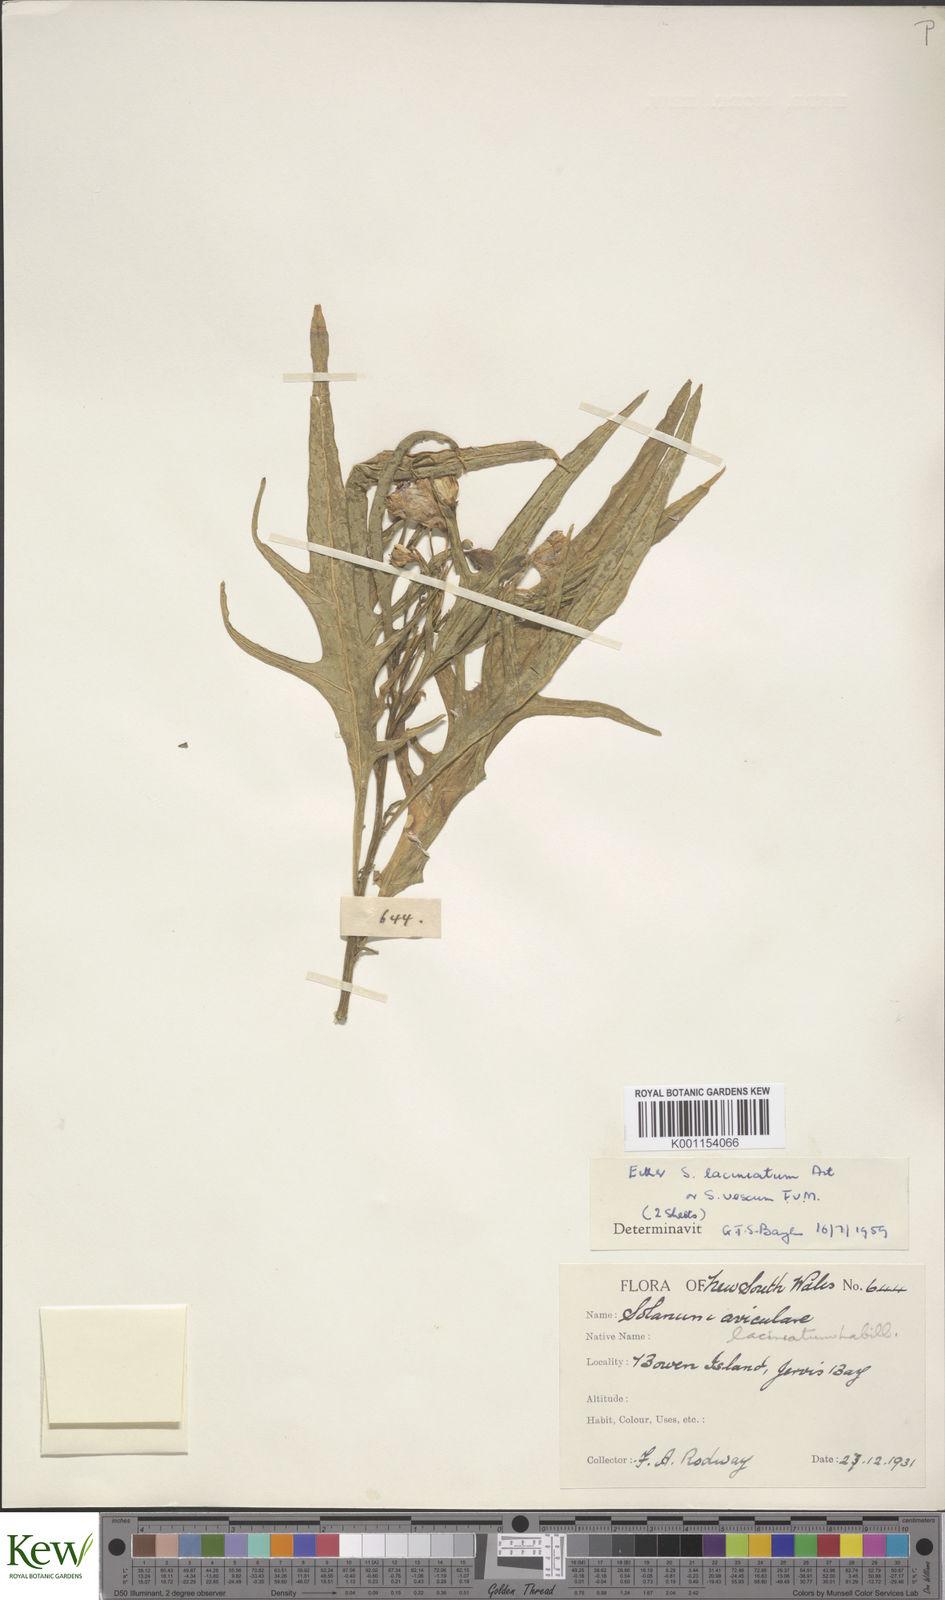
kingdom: Plantae
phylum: Tracheophyta
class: Magnoliopsida
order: Solanales
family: Solanaceae
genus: Solanum
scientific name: Solanum
